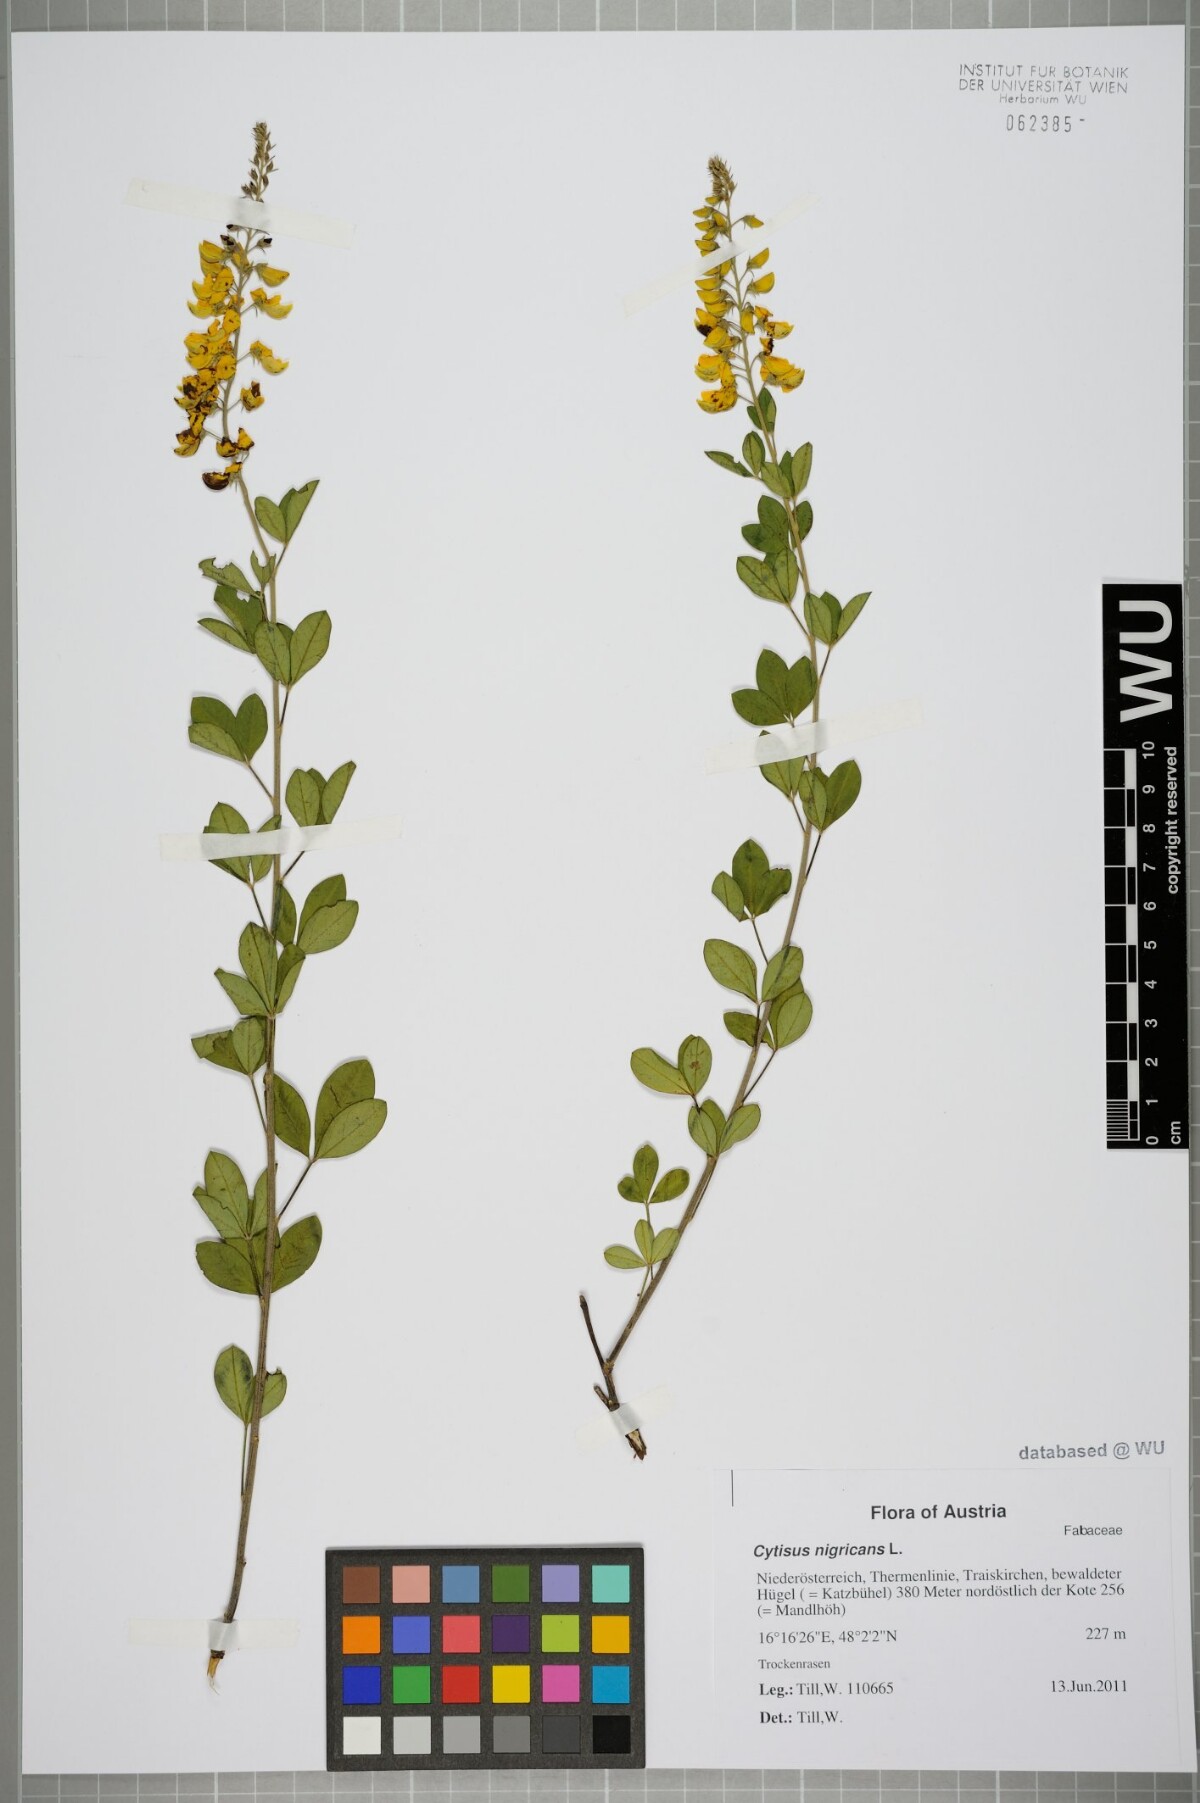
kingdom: Plantae
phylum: Tracheophyta
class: Magnoliopsida
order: Fabales
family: Fabaceae
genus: Cytisus
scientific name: Cytisus nigricans
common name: Black broom
